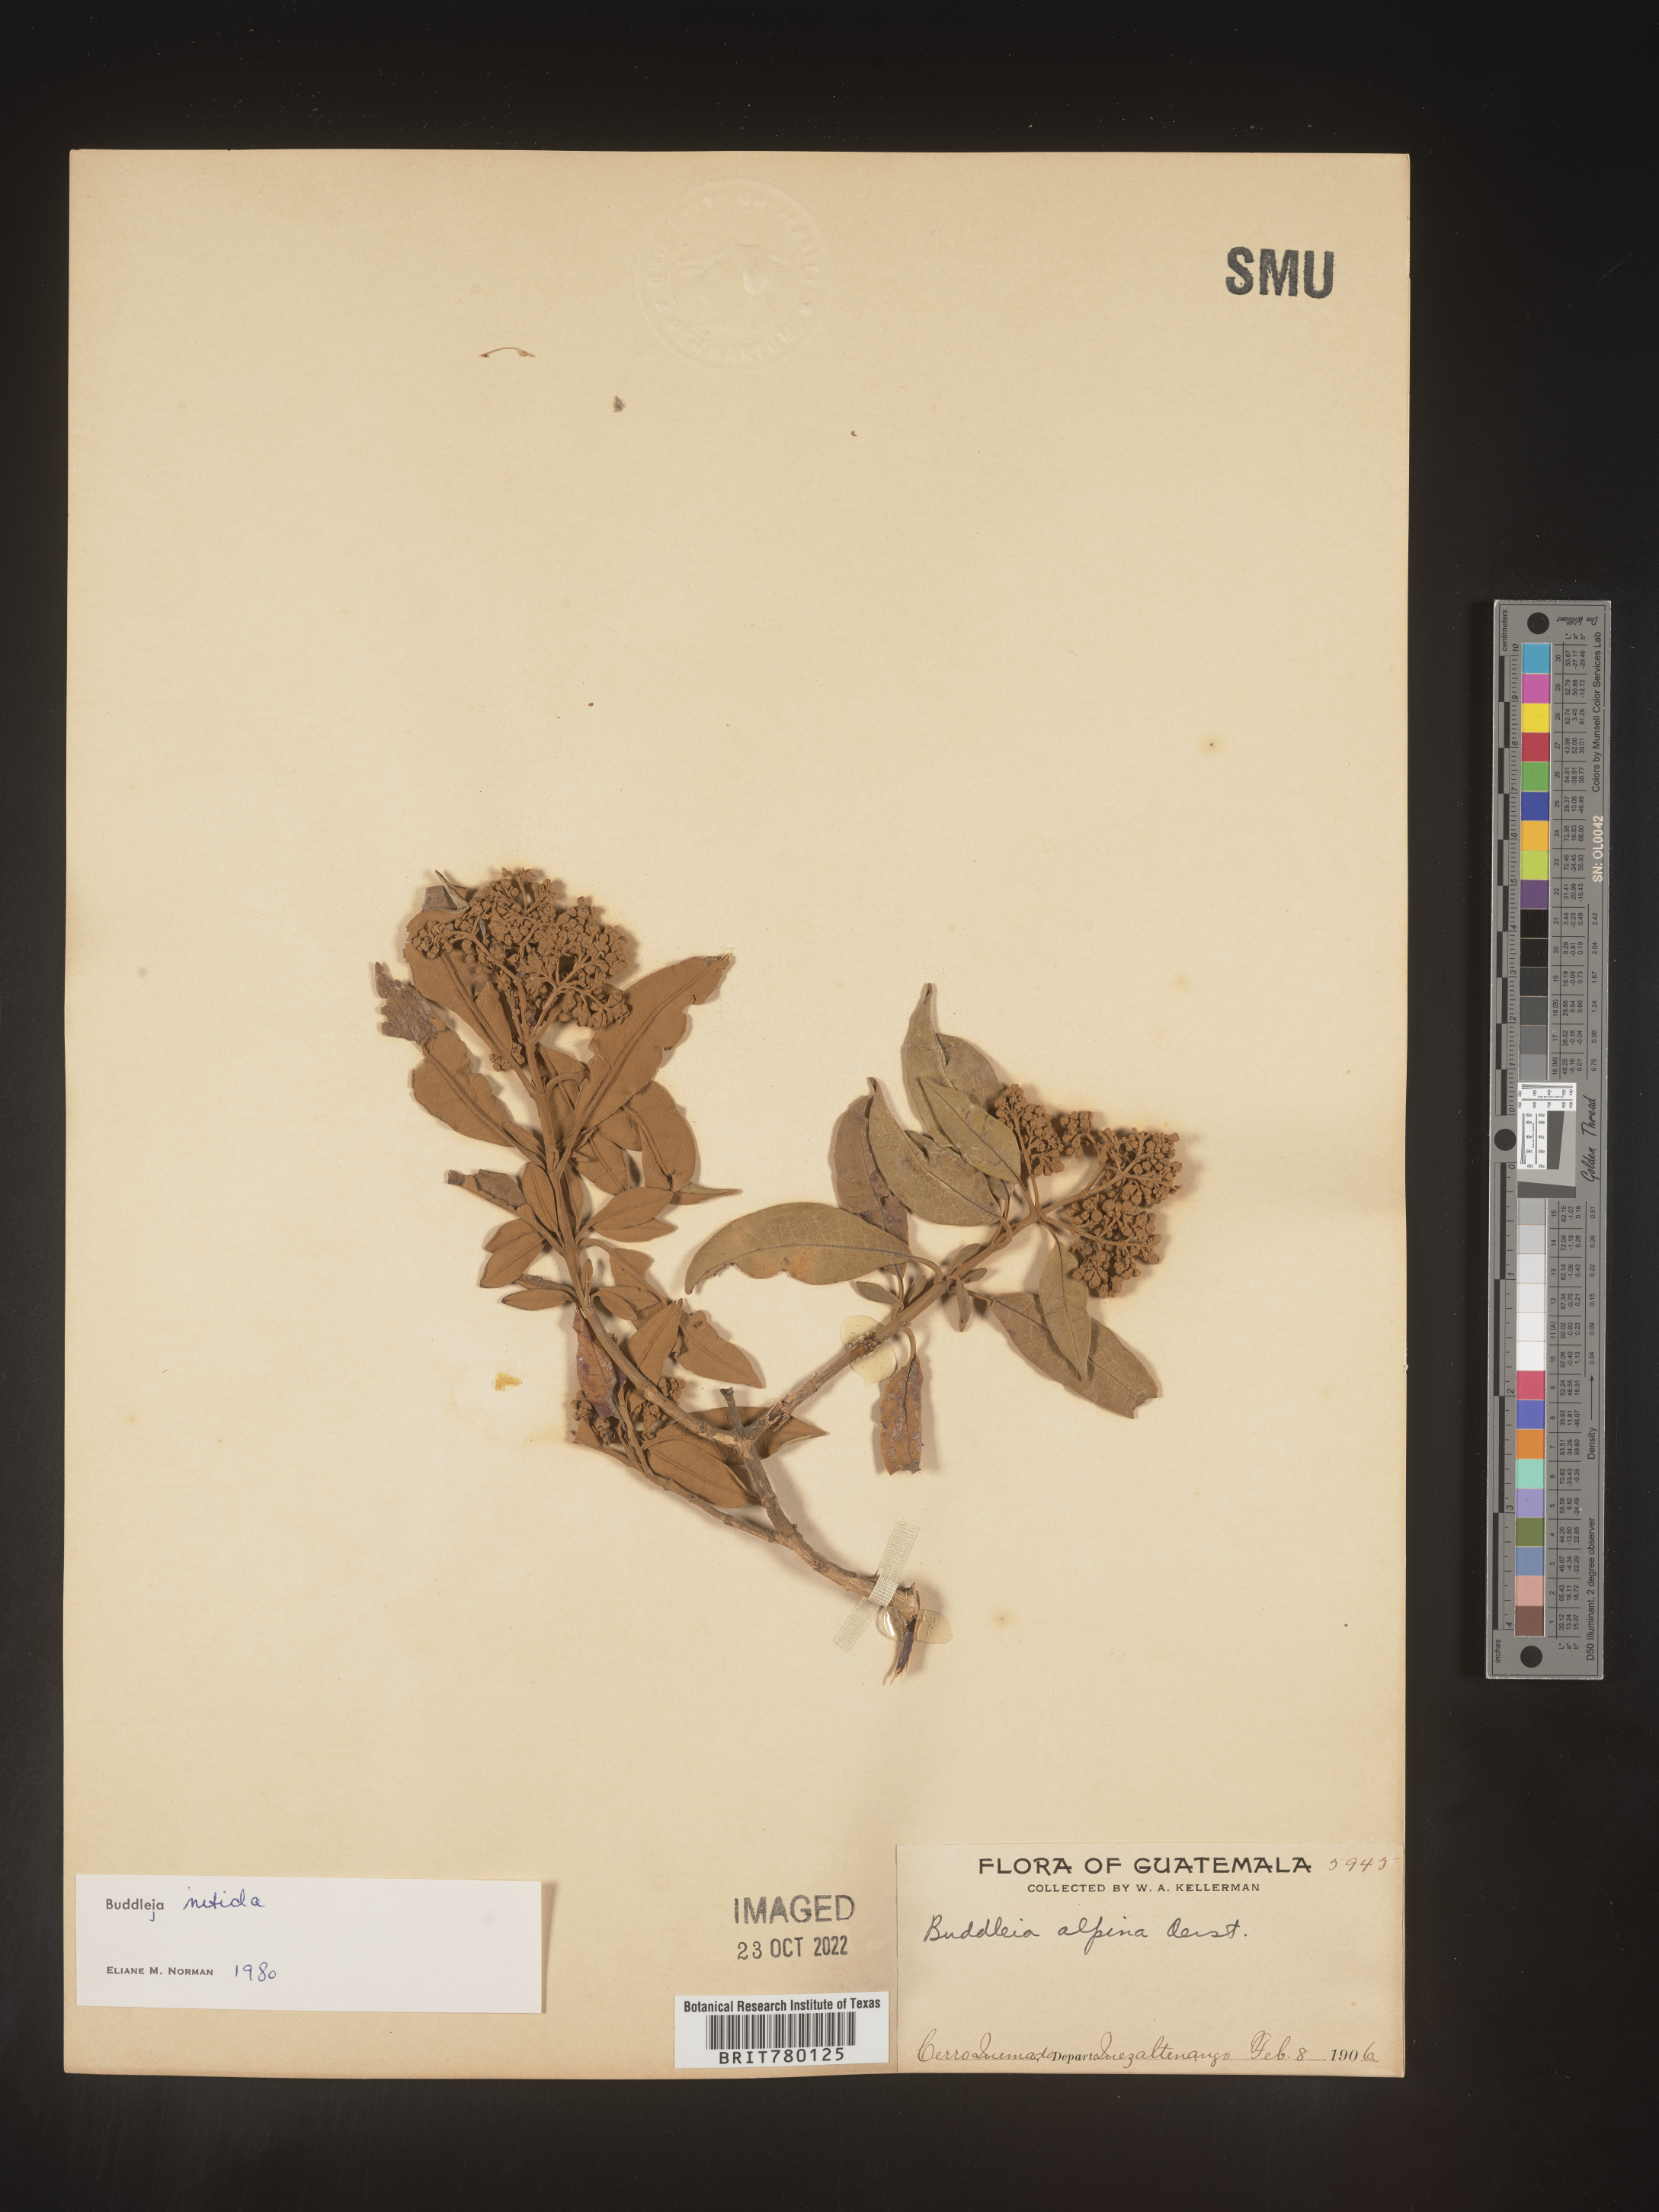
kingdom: Plantae
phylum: Tracheophyta
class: Magnoliopsida
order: Lamiales
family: Scrophulariaceae
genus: Buddleja
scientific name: Buddleja
